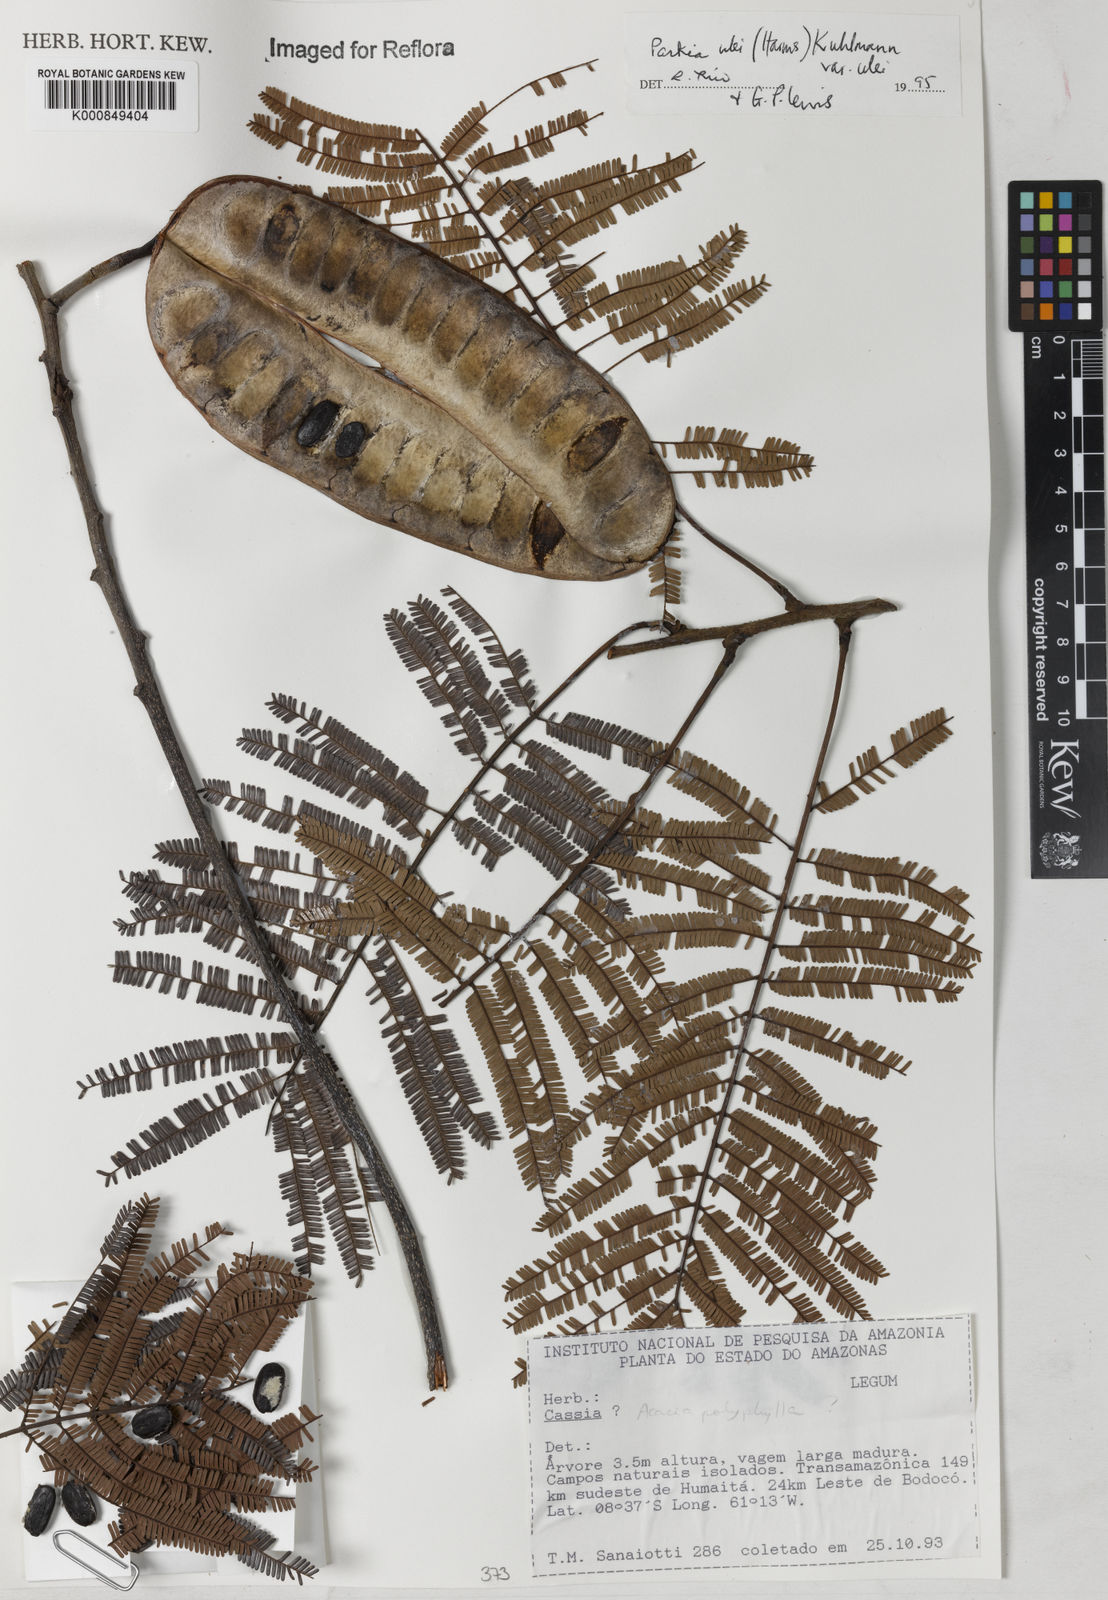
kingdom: Plantae
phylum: Tracheophyta
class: Magnoliopsida
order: Fabales
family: Fabaceae
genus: Parkia
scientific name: Parkia ulei
